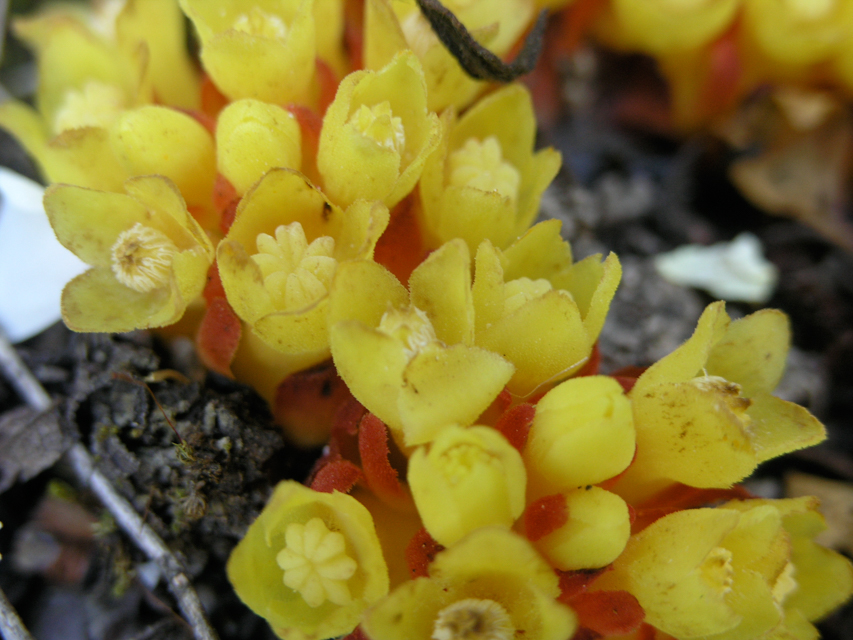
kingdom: Plantae
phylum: Tracheophyta
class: Magnoliopsida
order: Malvales
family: Cytinaceae
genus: Cytinus
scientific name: Cytinus hypocistis
